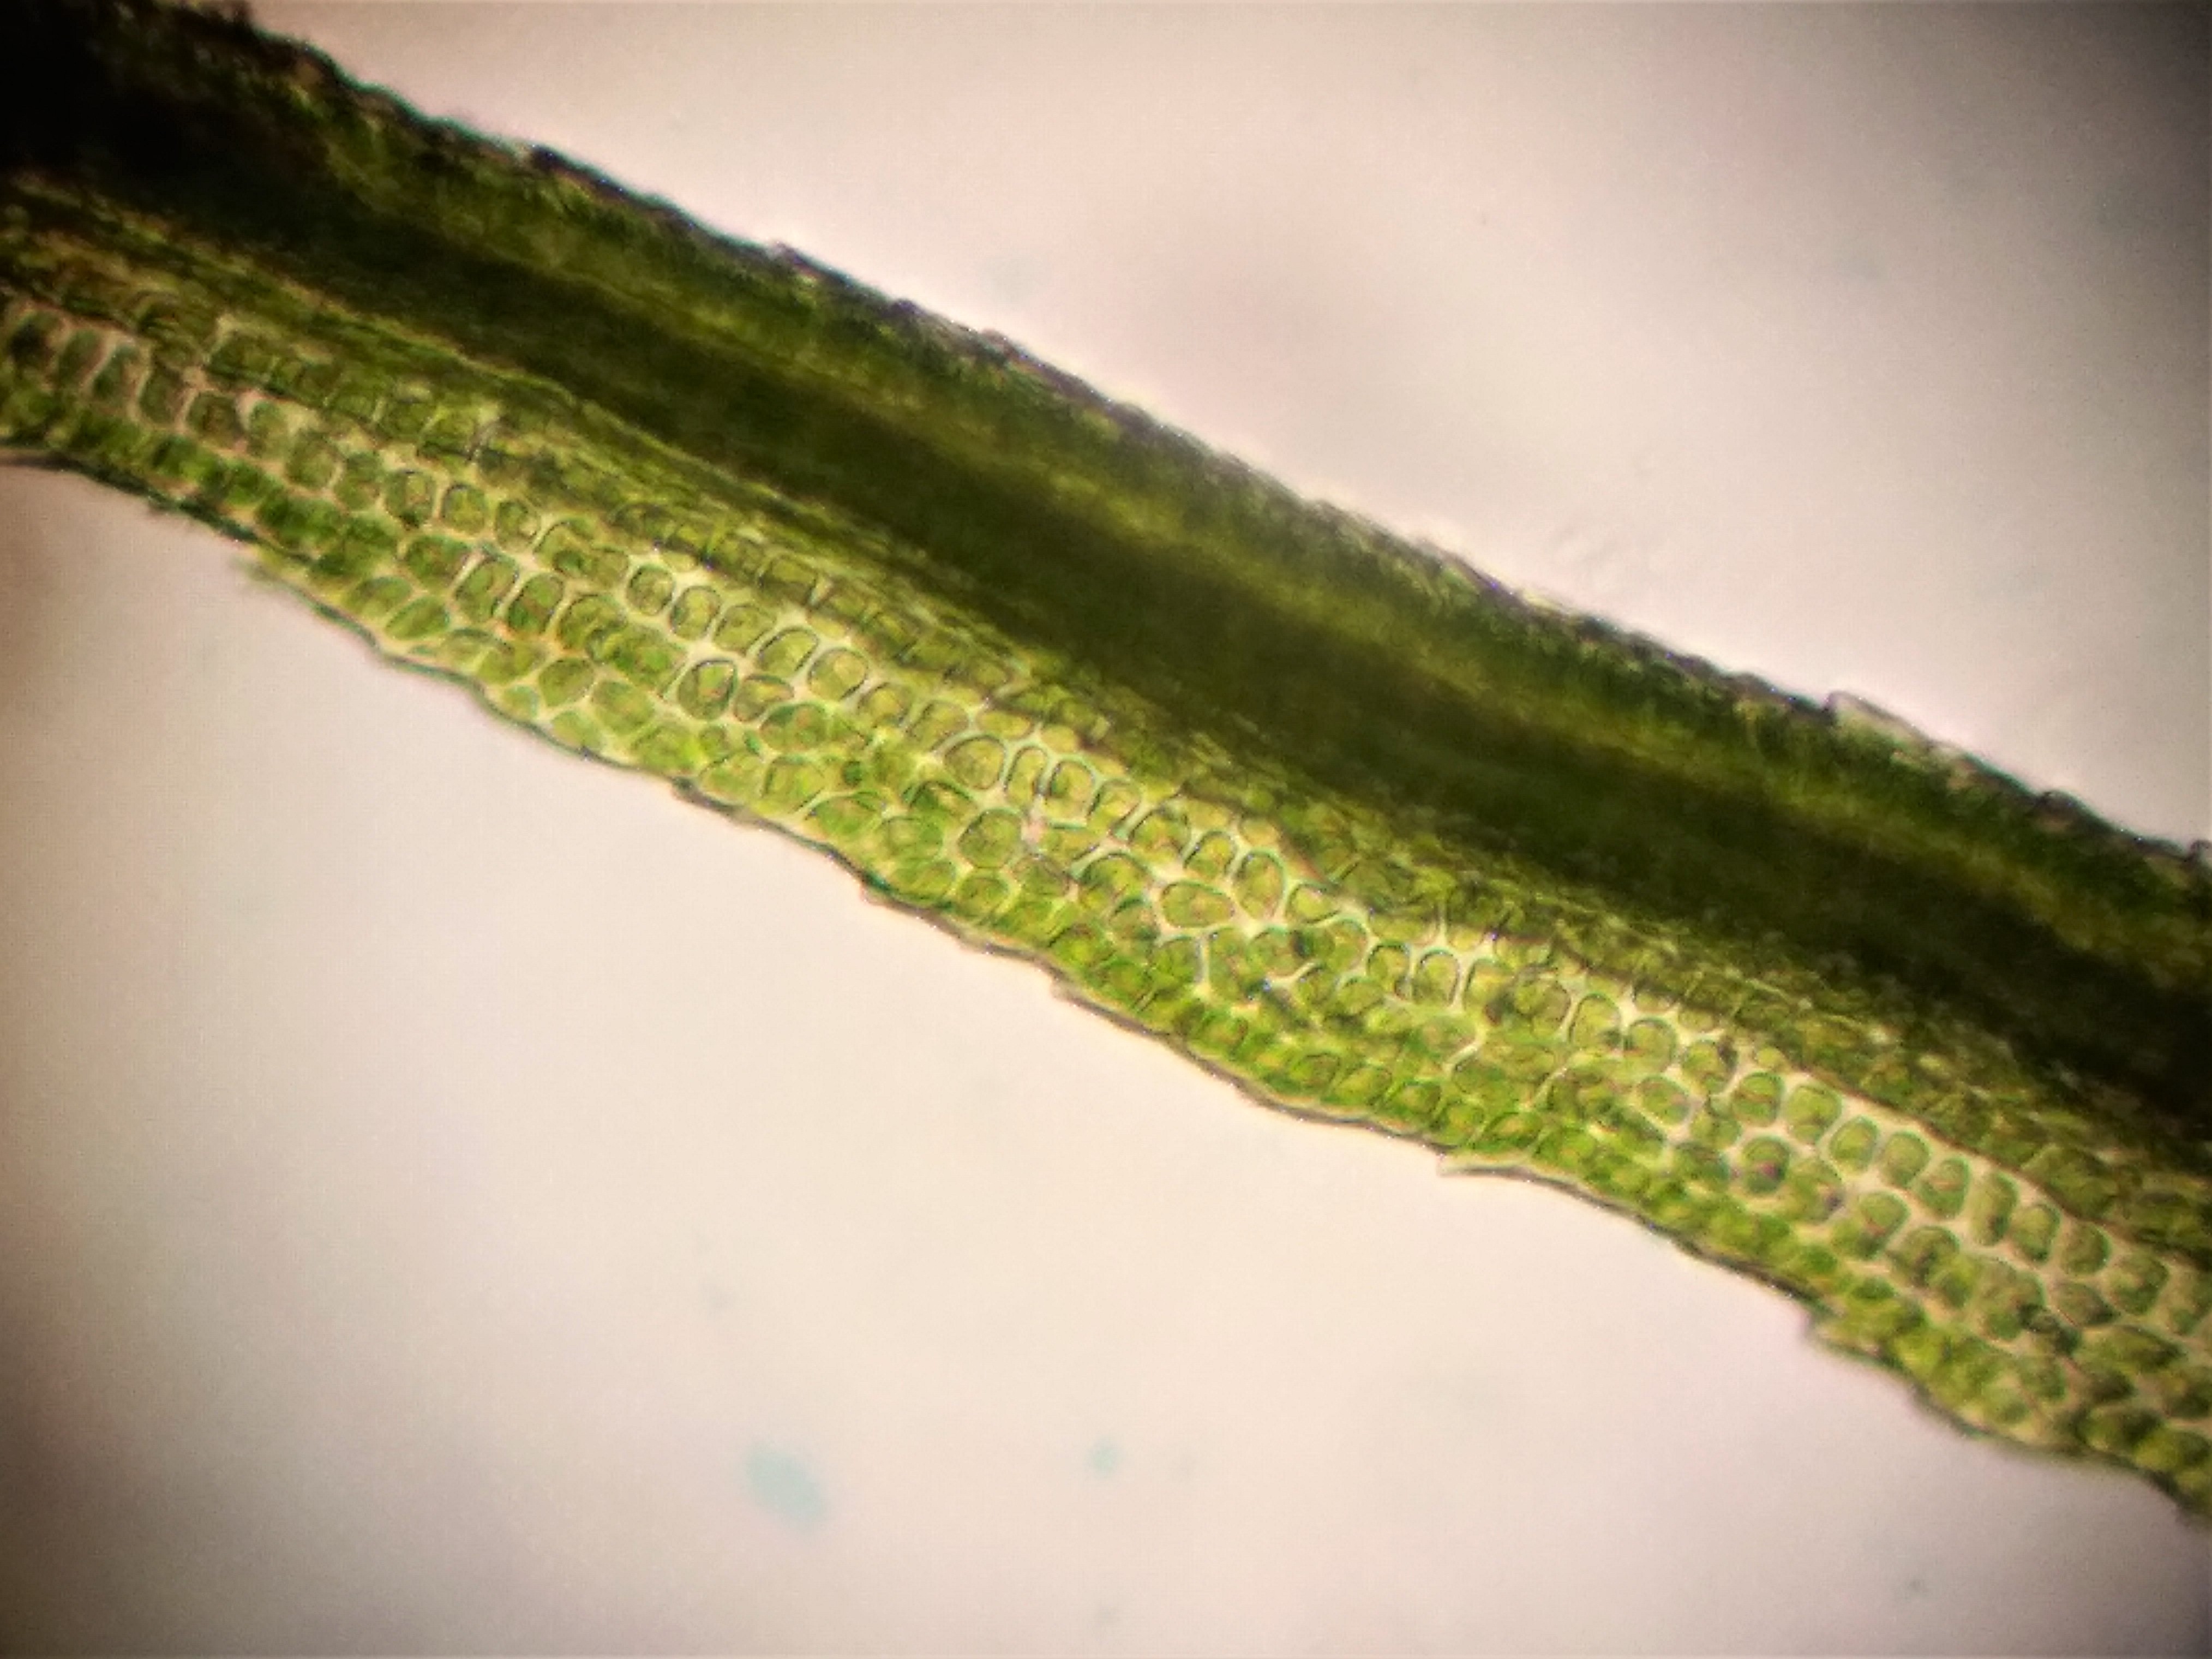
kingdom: Plantae
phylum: Bryophyta
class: Bryopsida
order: Dicranales
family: Dicranaceae
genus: Dicranum
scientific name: Dicranum fuscescens
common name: Mørk kløvtand
